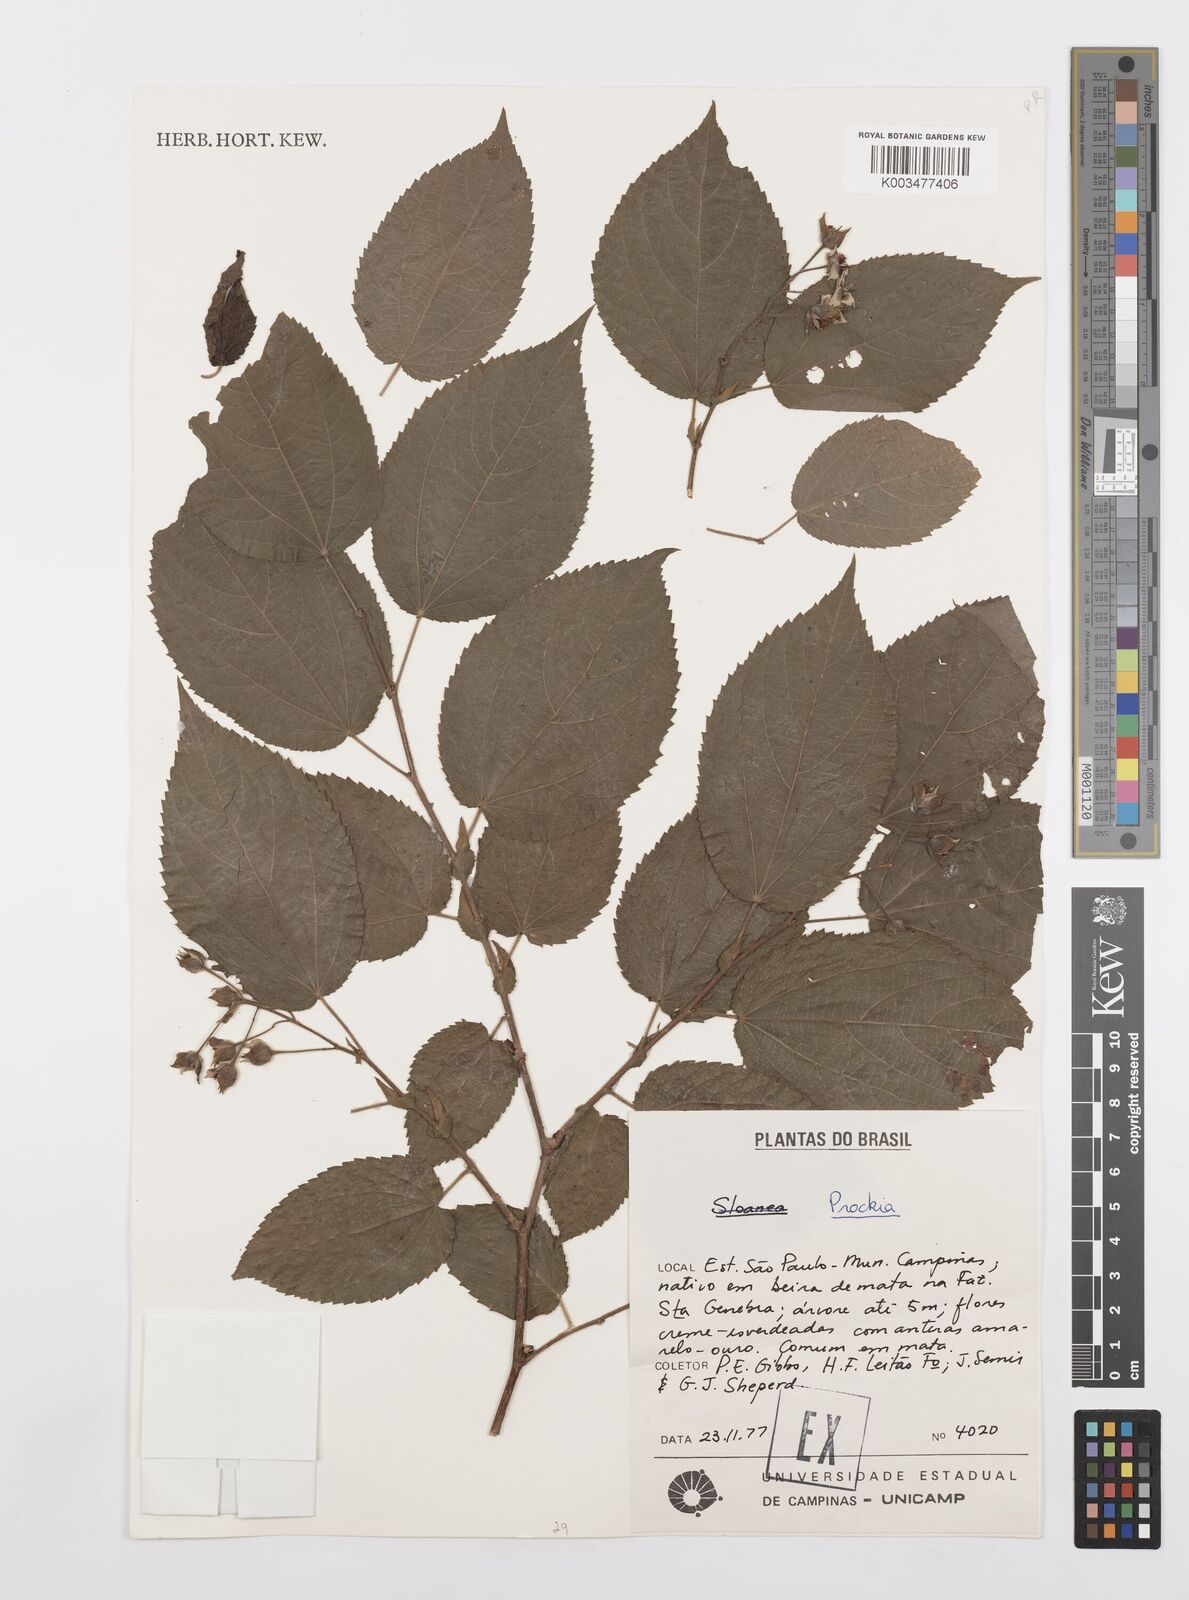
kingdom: Plantae
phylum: Tracheophyta
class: Magnoliopsida
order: Malpighiales
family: Salicaceae
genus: Prockia
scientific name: Prockia
